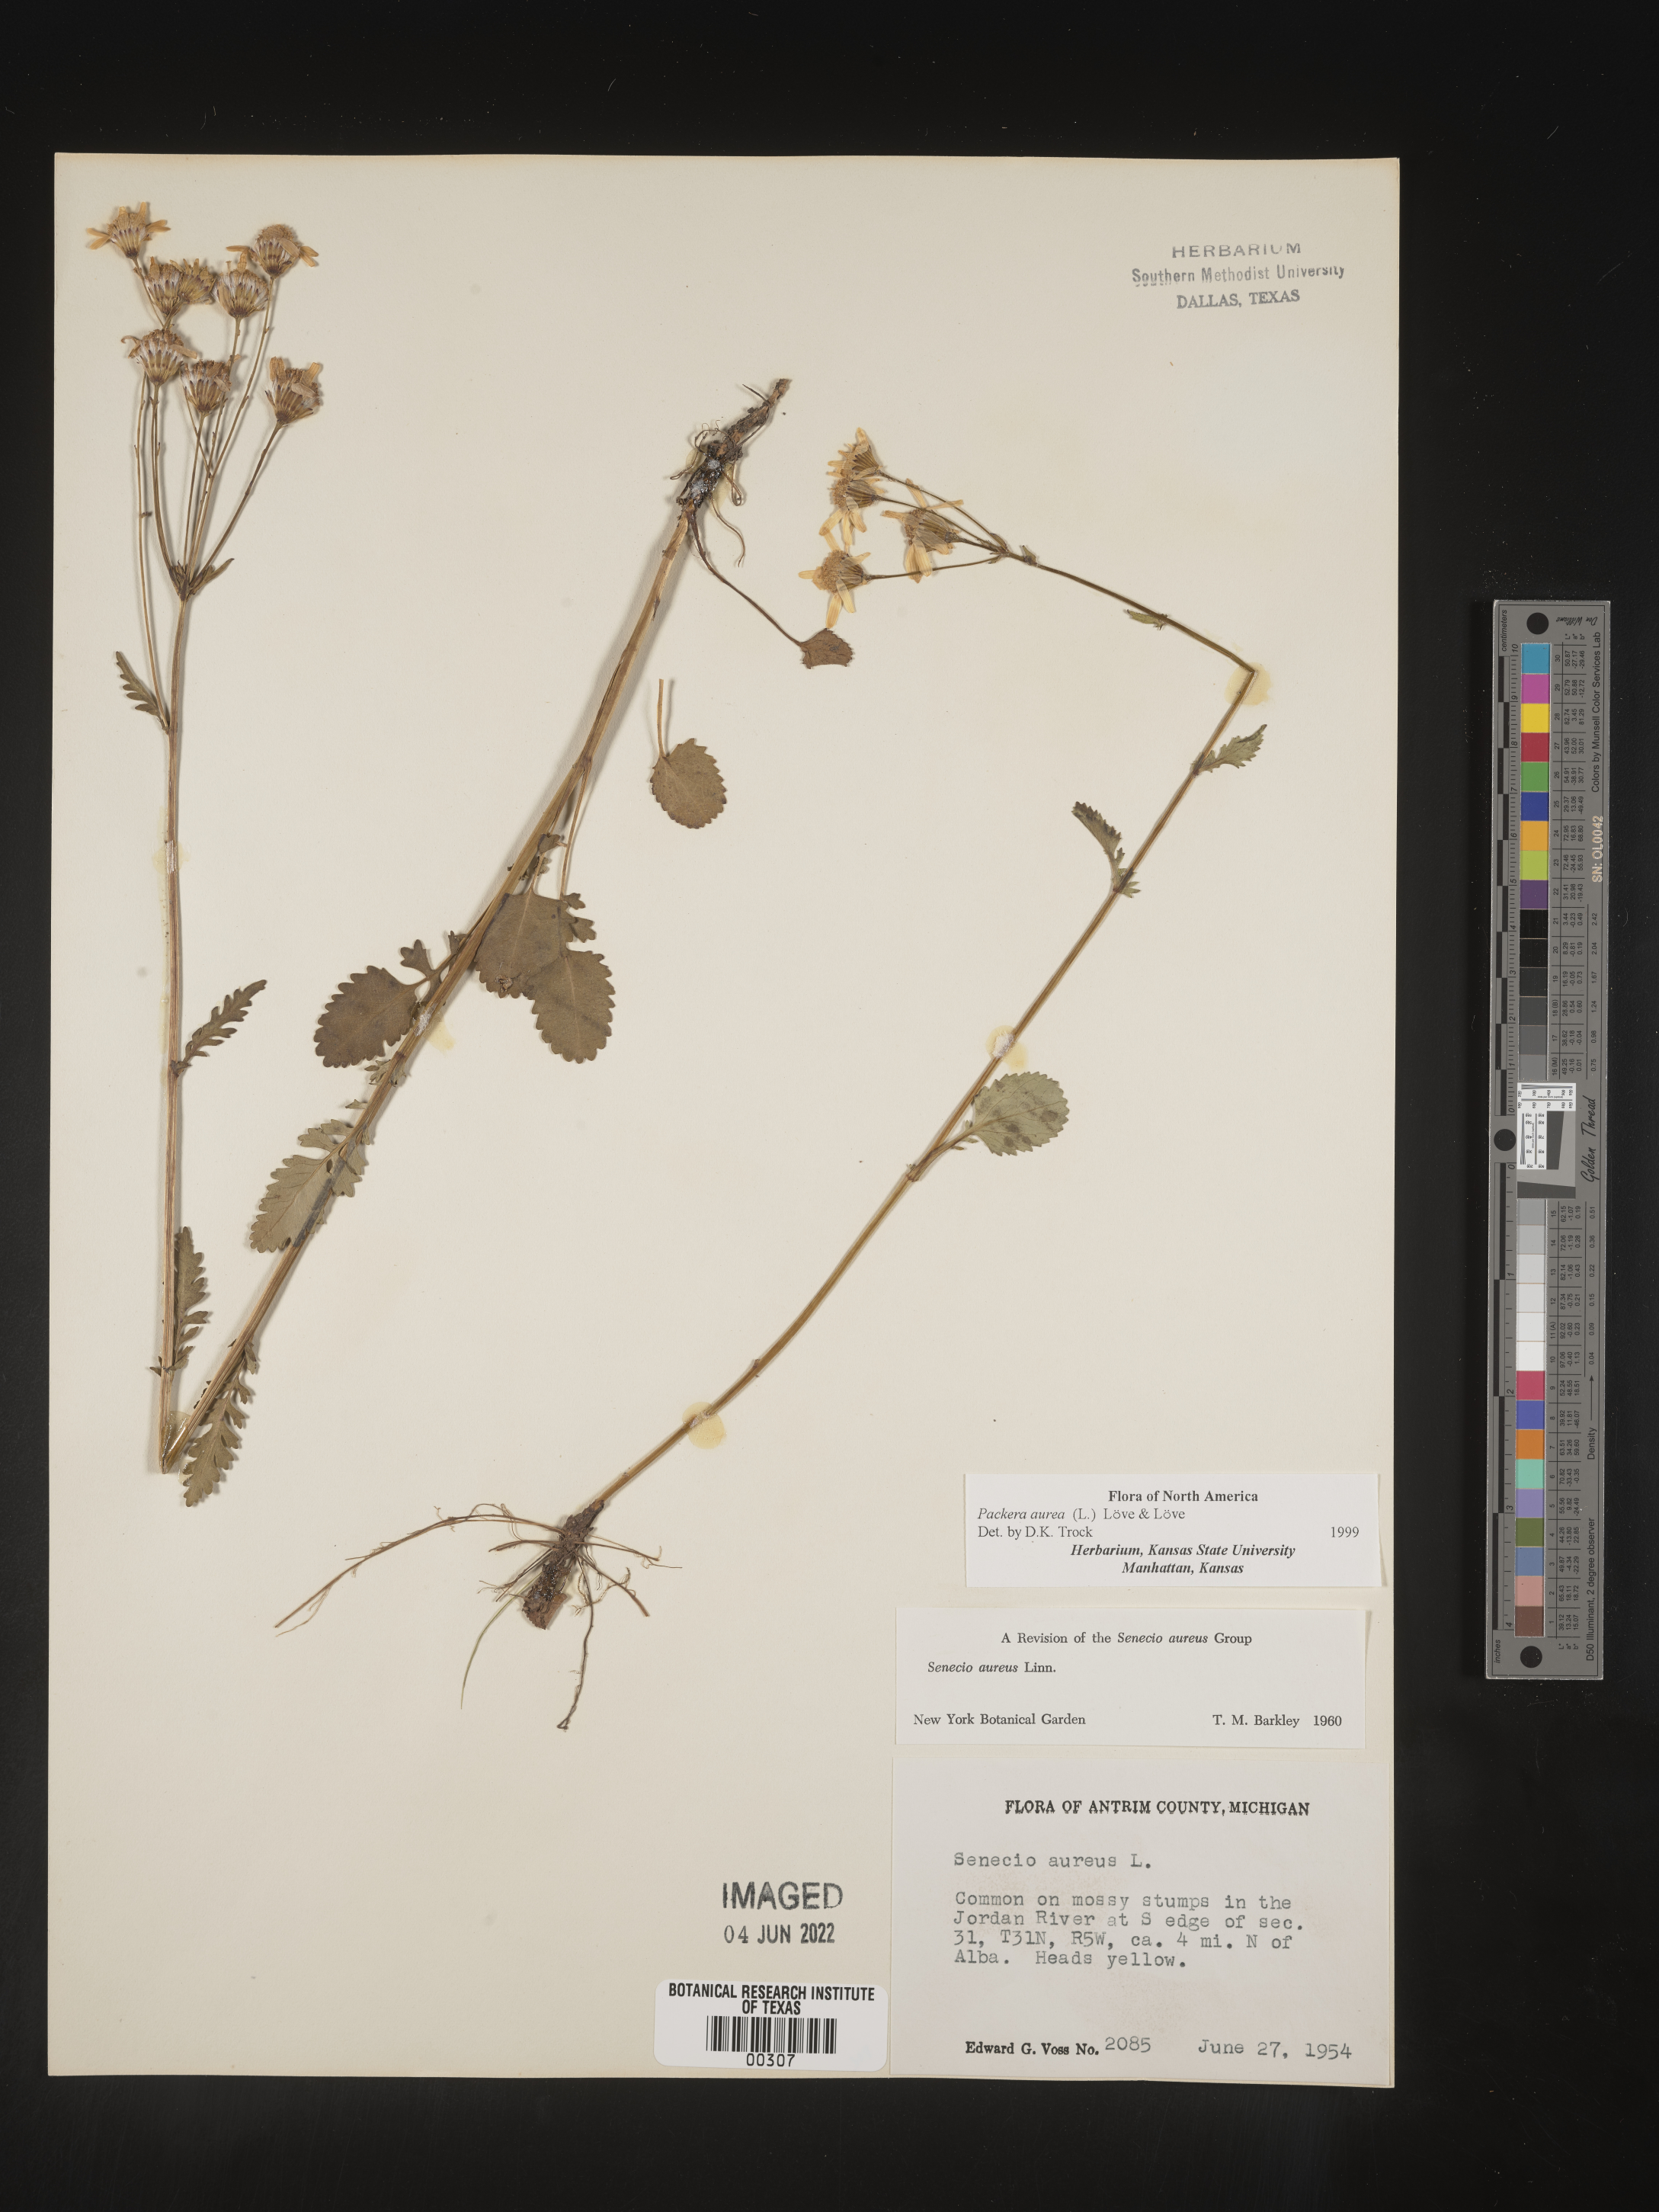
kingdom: Plantae
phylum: Tracheophyta
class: Magnoliopsida
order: Asterales
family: Asteraceae
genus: Packera
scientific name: Packera aurea
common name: Golden groundsel
